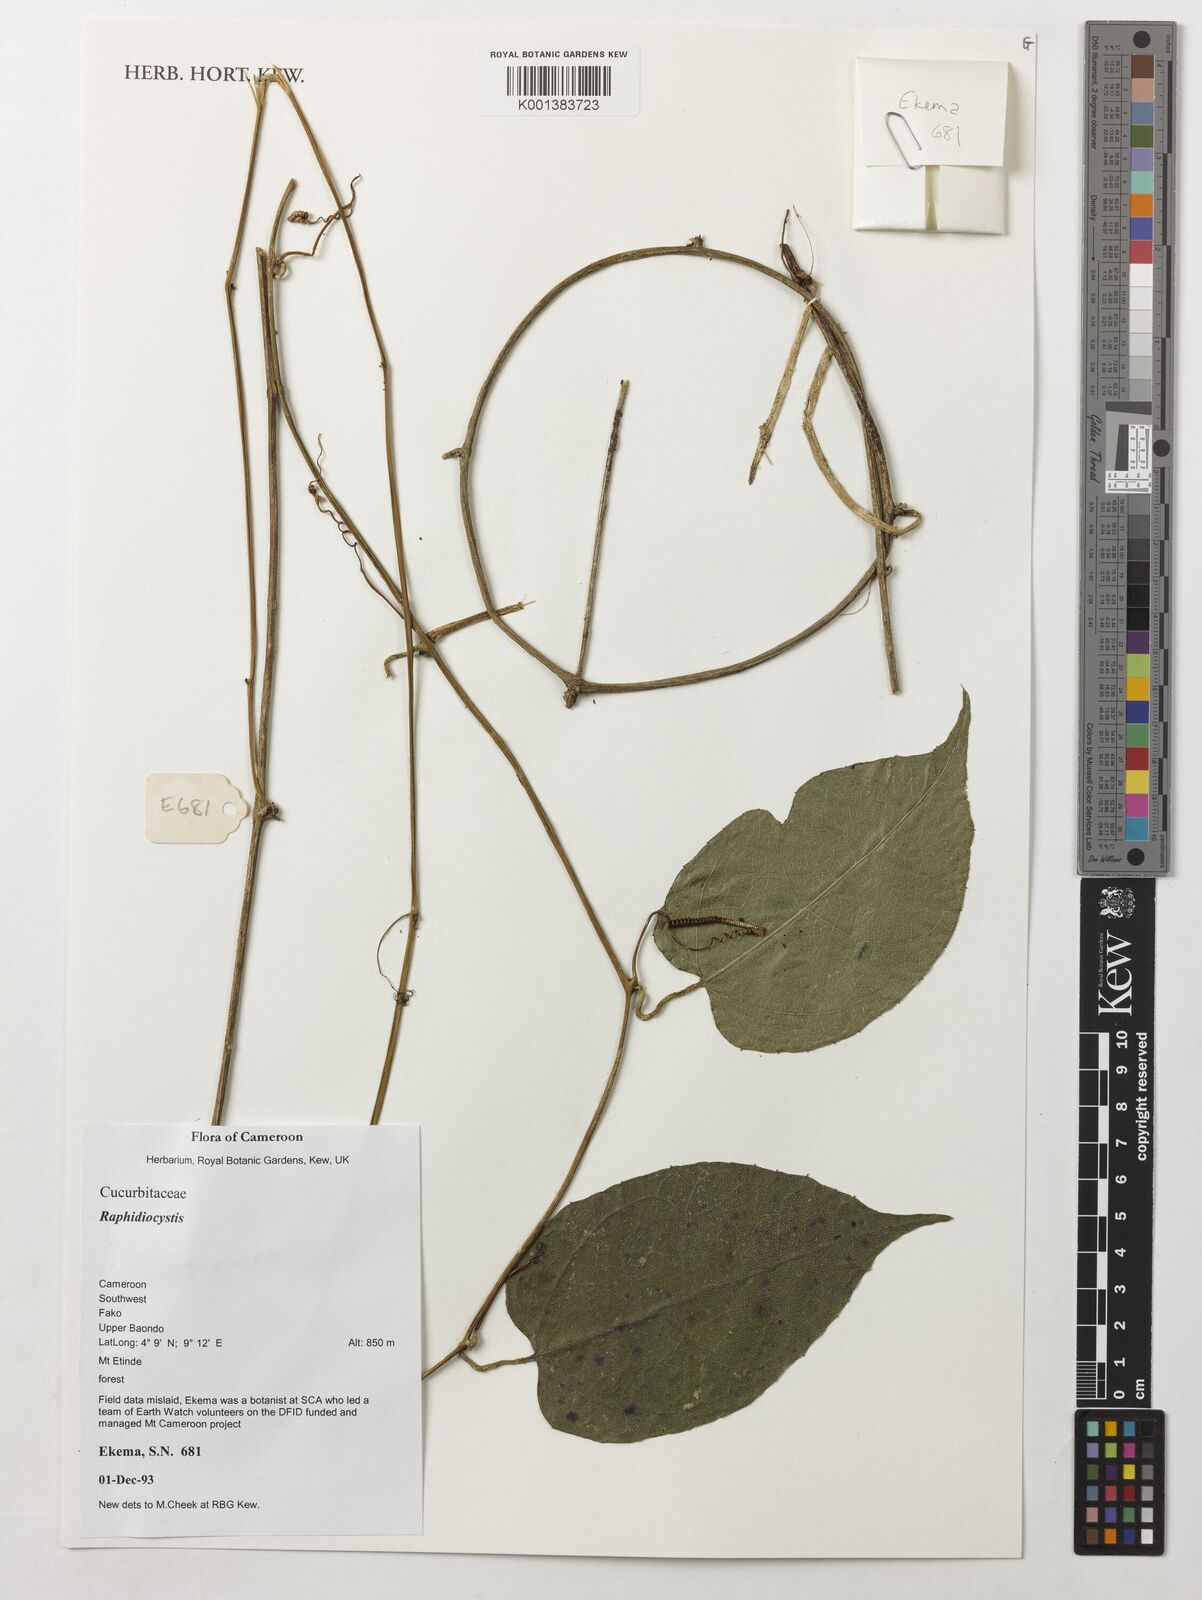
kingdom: Plantae
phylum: Tracheophyta
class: Magnoliopsida
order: Cucurbitales
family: Cucurbitaceae
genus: Raphidiocystis
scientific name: Raphidiocystis
